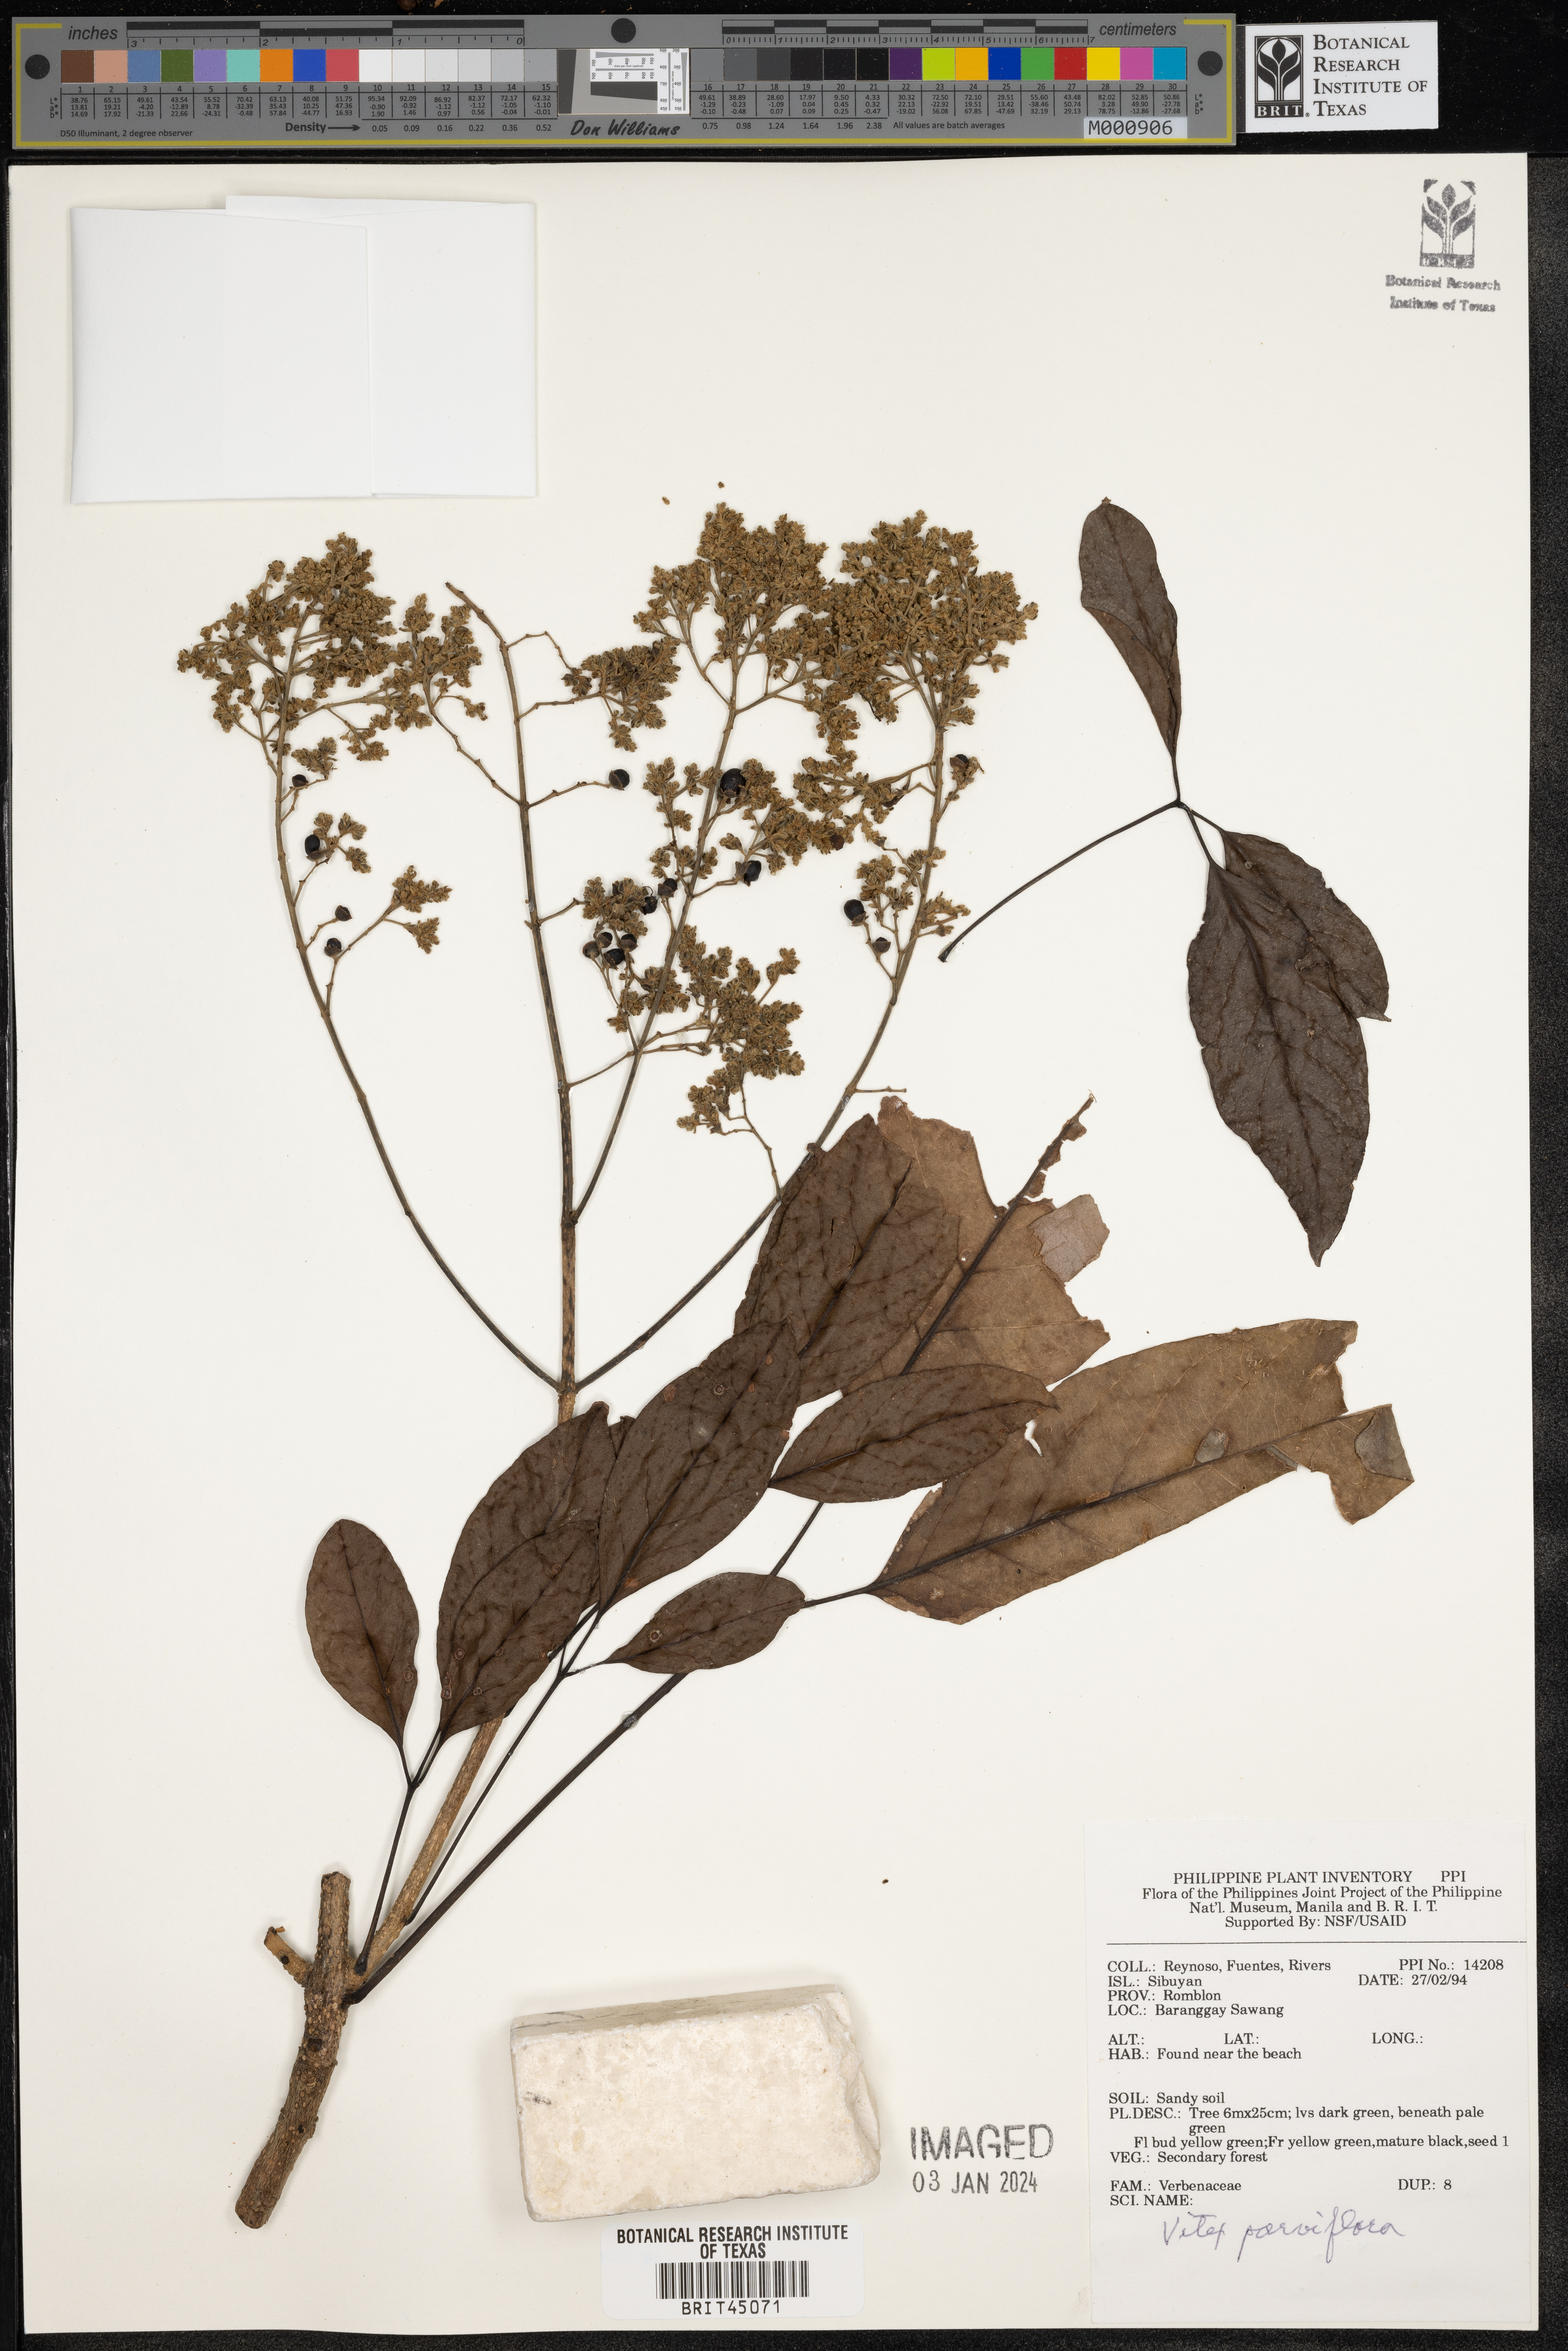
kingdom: Plantae
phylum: Tracheophyta
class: Magnoliopsida
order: Lamiales
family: Lamiaceae
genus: Vitex
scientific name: Vitex parviflora
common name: Smallflower chastetree
